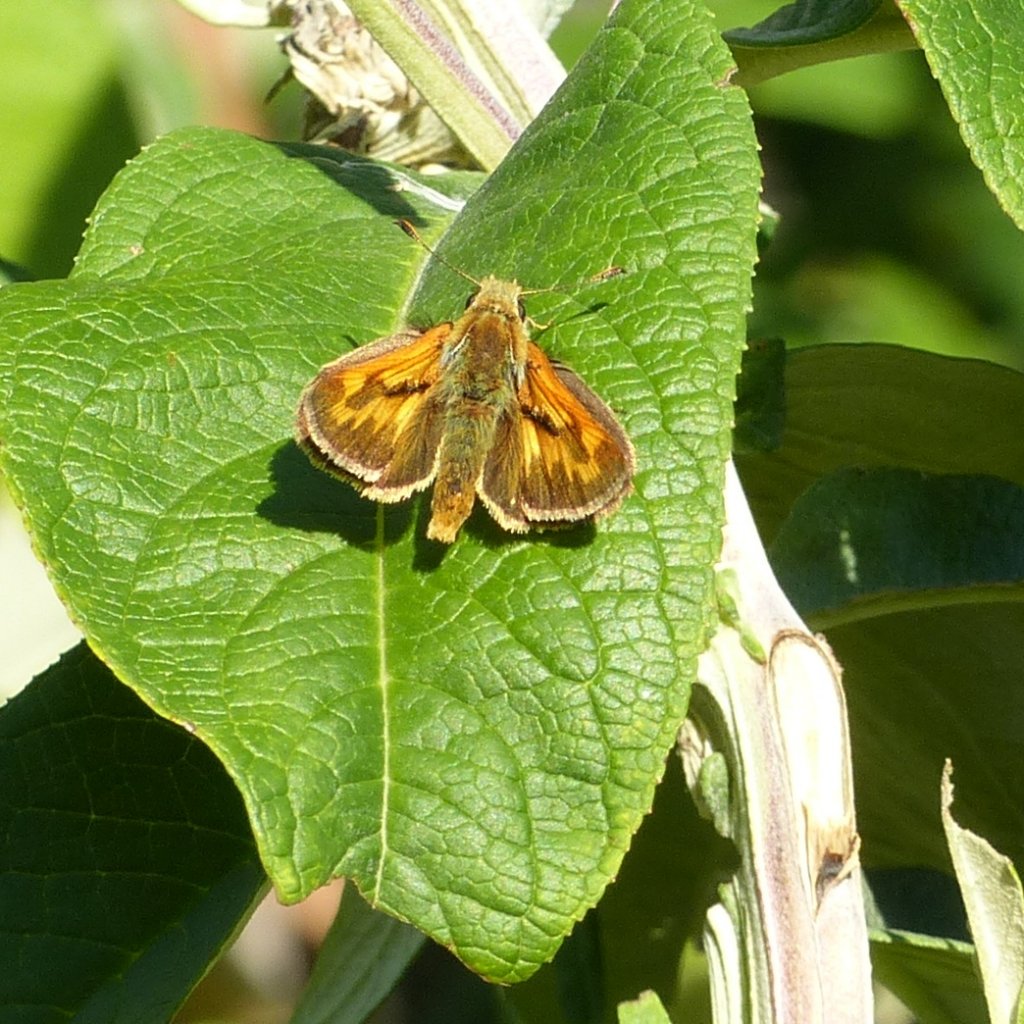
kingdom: Animalia
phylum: Arthropoda
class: Insecta
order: Lepidoptera
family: Hesperiidae
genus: Ochlodes
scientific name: Ochlodes sylvanoides
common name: Woodland Skipper
